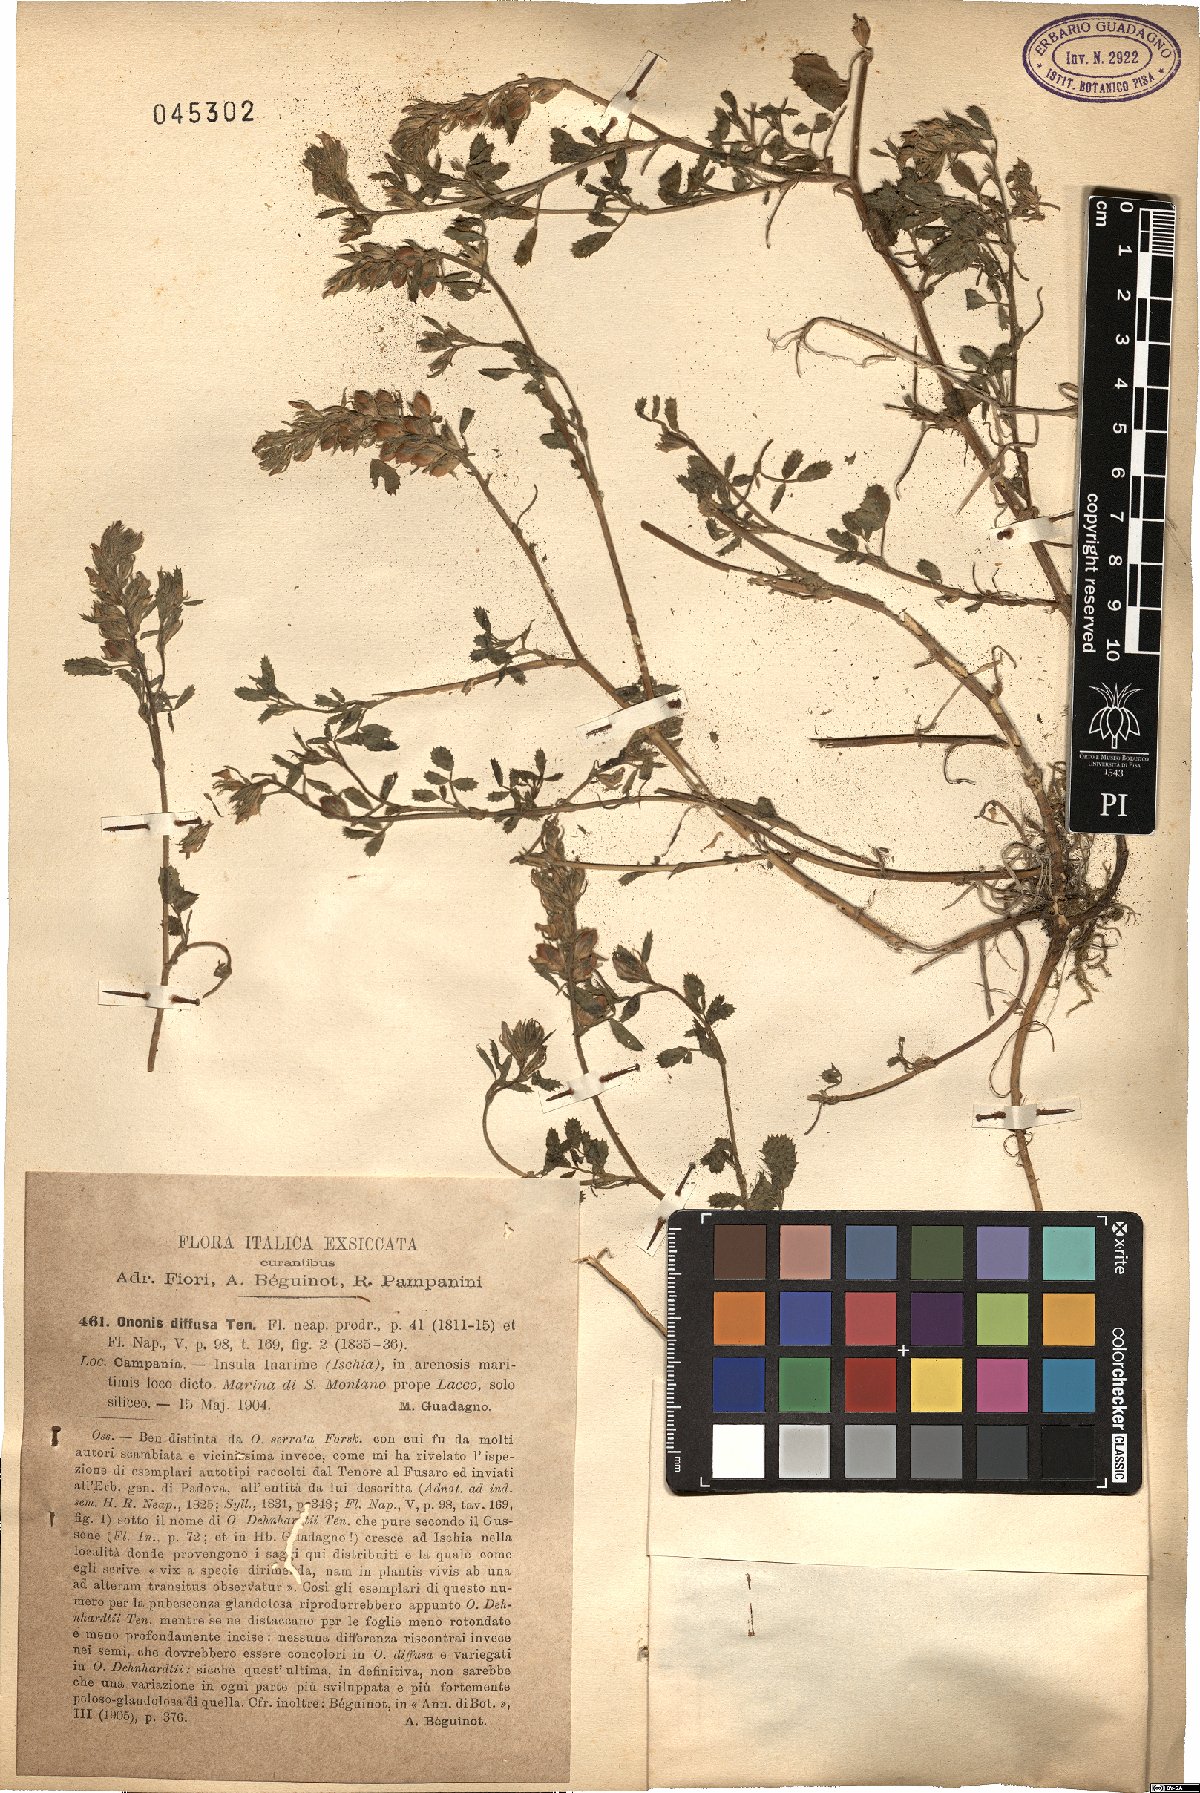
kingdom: Plantae
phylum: Tracheophyta
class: Magnoliopsida
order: Fabales
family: Fabaceae
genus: Ononis
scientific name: Ononis diffusa
